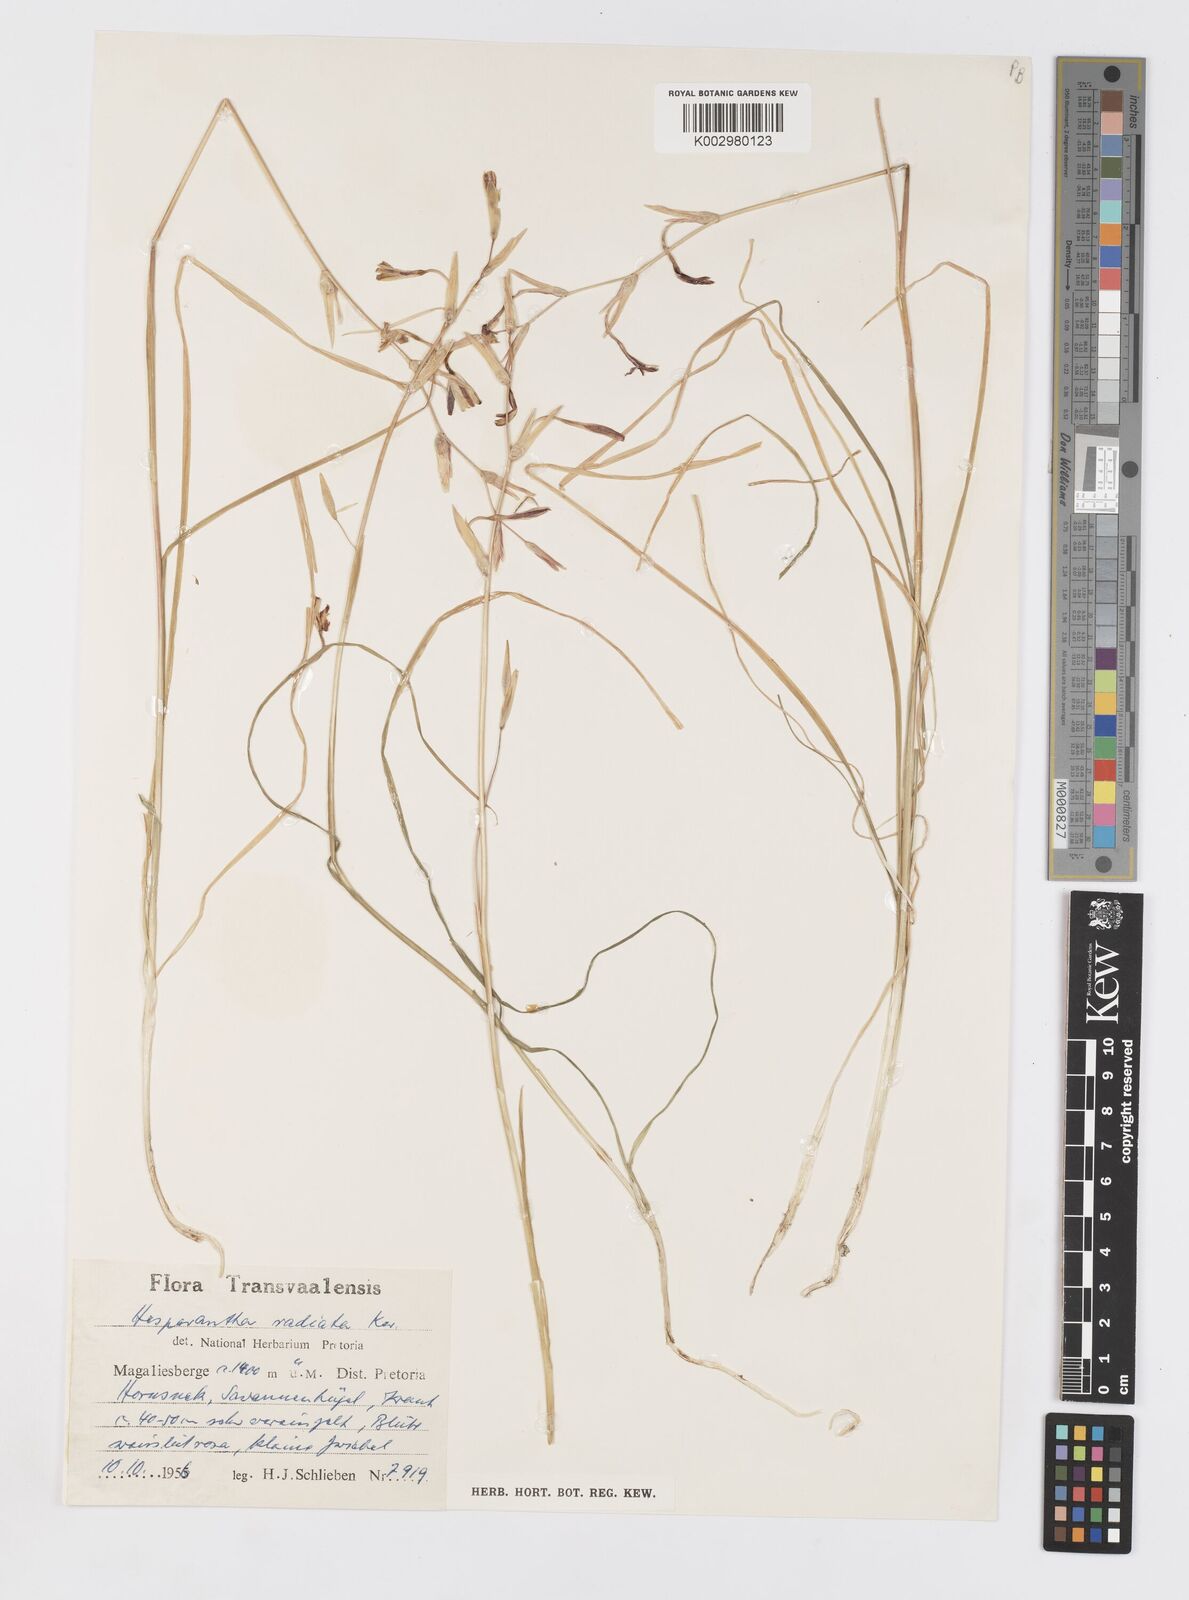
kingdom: Plantae
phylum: Tracheophyta
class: Liliopsida
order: Asparagales
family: Iridaceae
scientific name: Iridaceae
